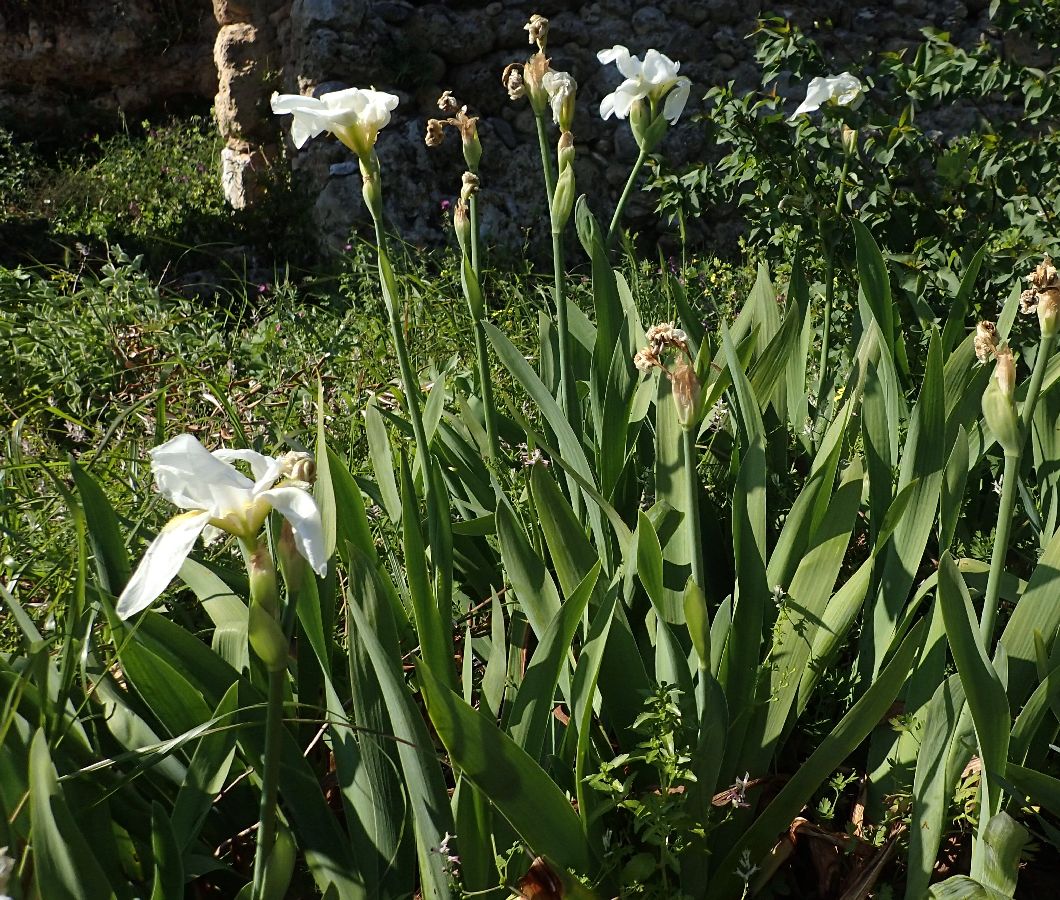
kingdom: Plantae
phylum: Tracheophyta
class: Liliopsida
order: Asparagales
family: Iridaceae
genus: Iris
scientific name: Iris
